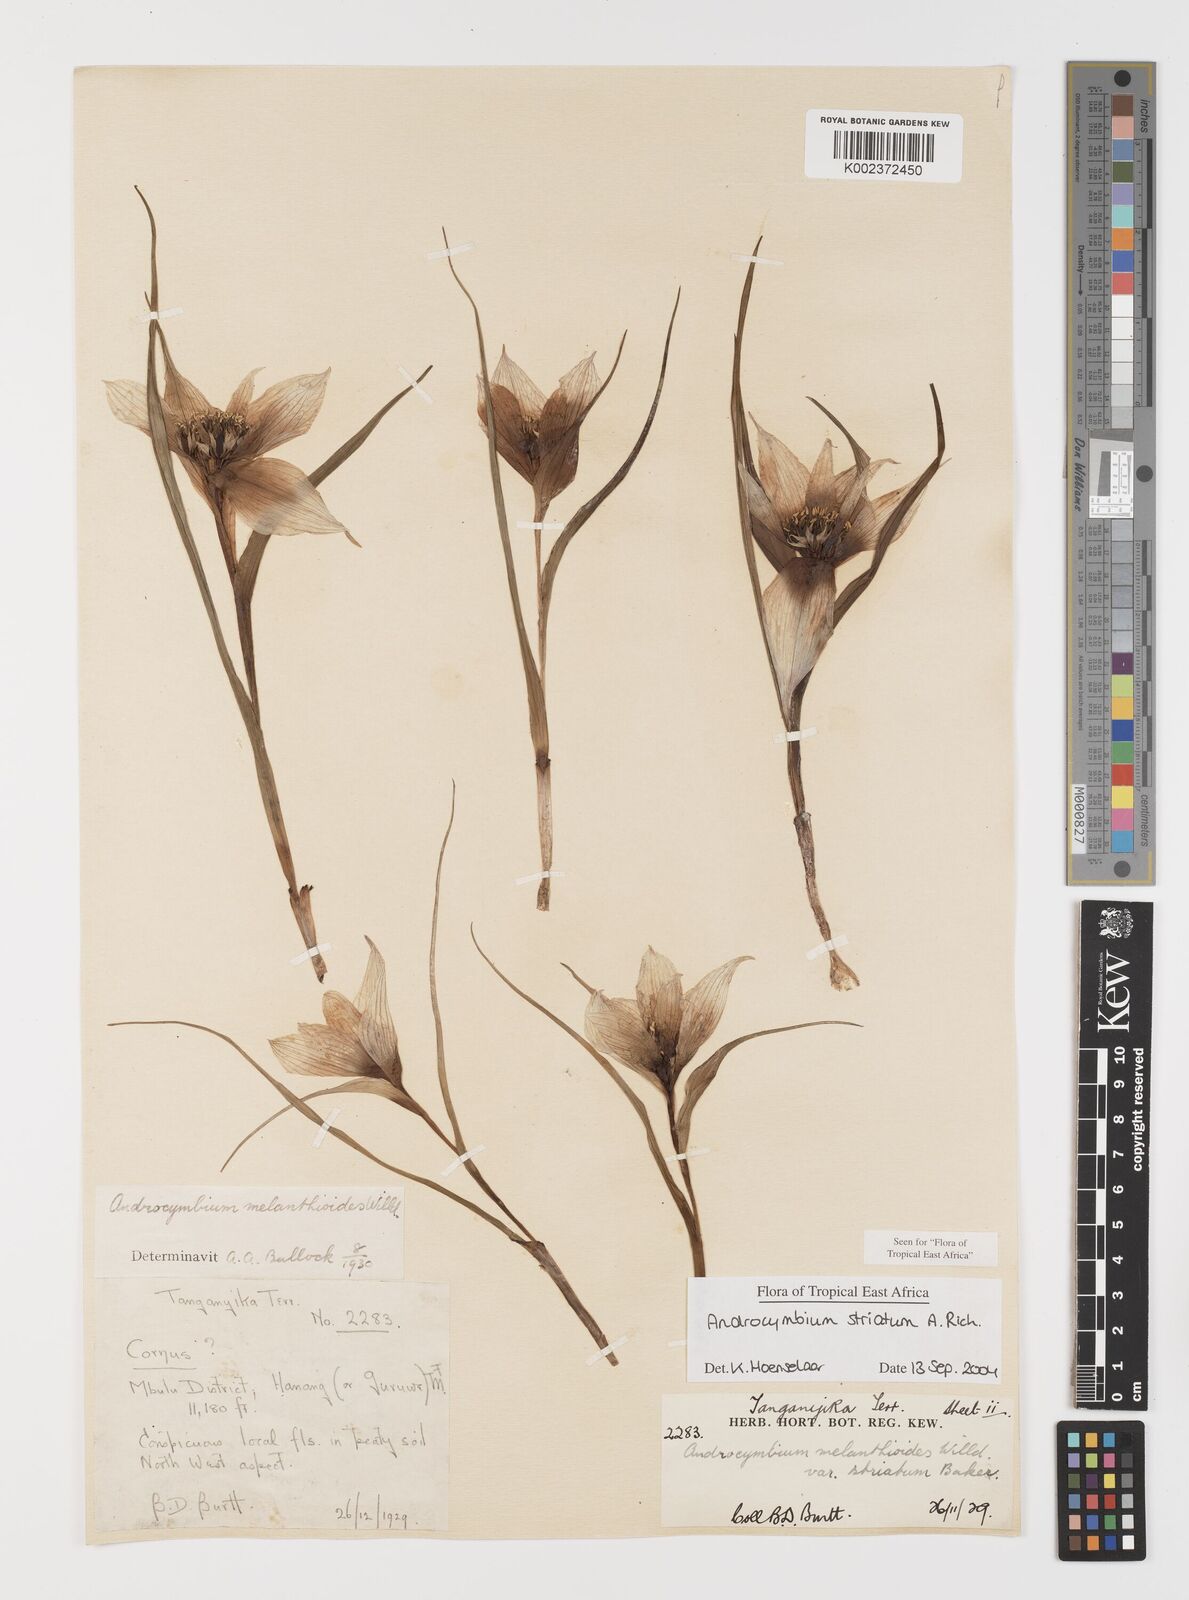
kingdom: Plantae
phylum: Tracheophyta
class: Liliopsida
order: Liliales
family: Colchicaceae
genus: Colchicum
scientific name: Colchicum striatum
